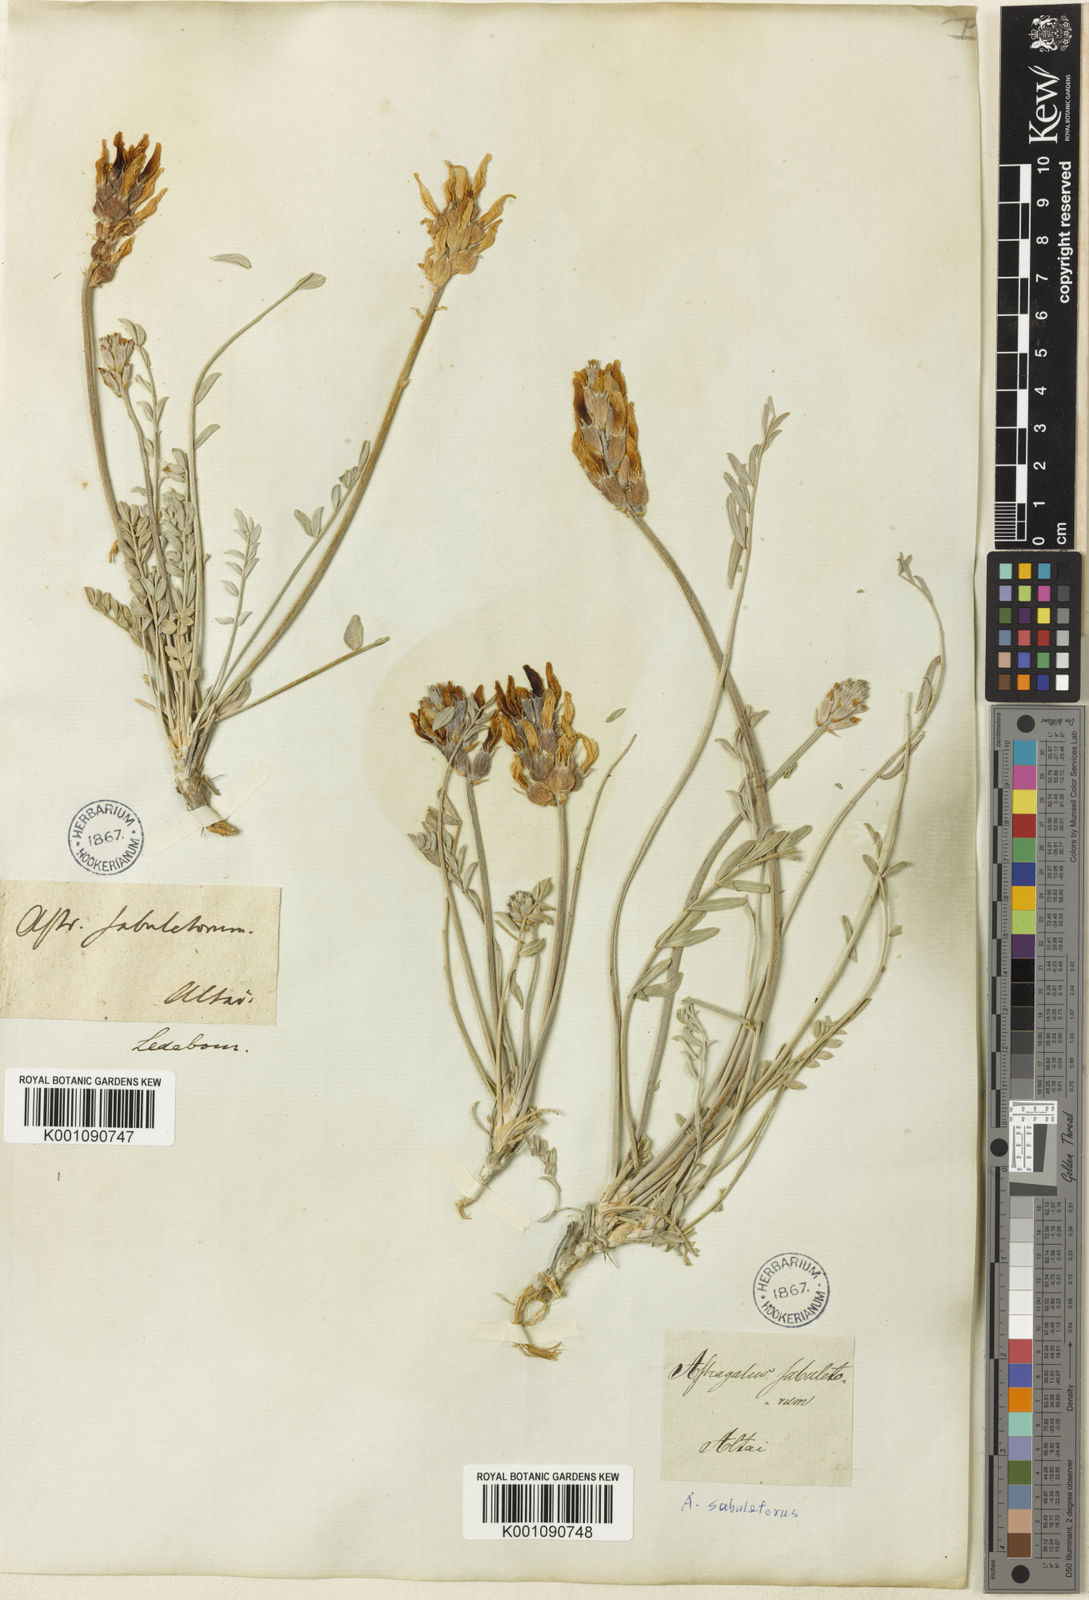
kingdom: Plantae
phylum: Tracheophyta
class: Magnoliopsida
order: Fabales
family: Fabaceae
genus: Astragalus
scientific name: Astragalus
